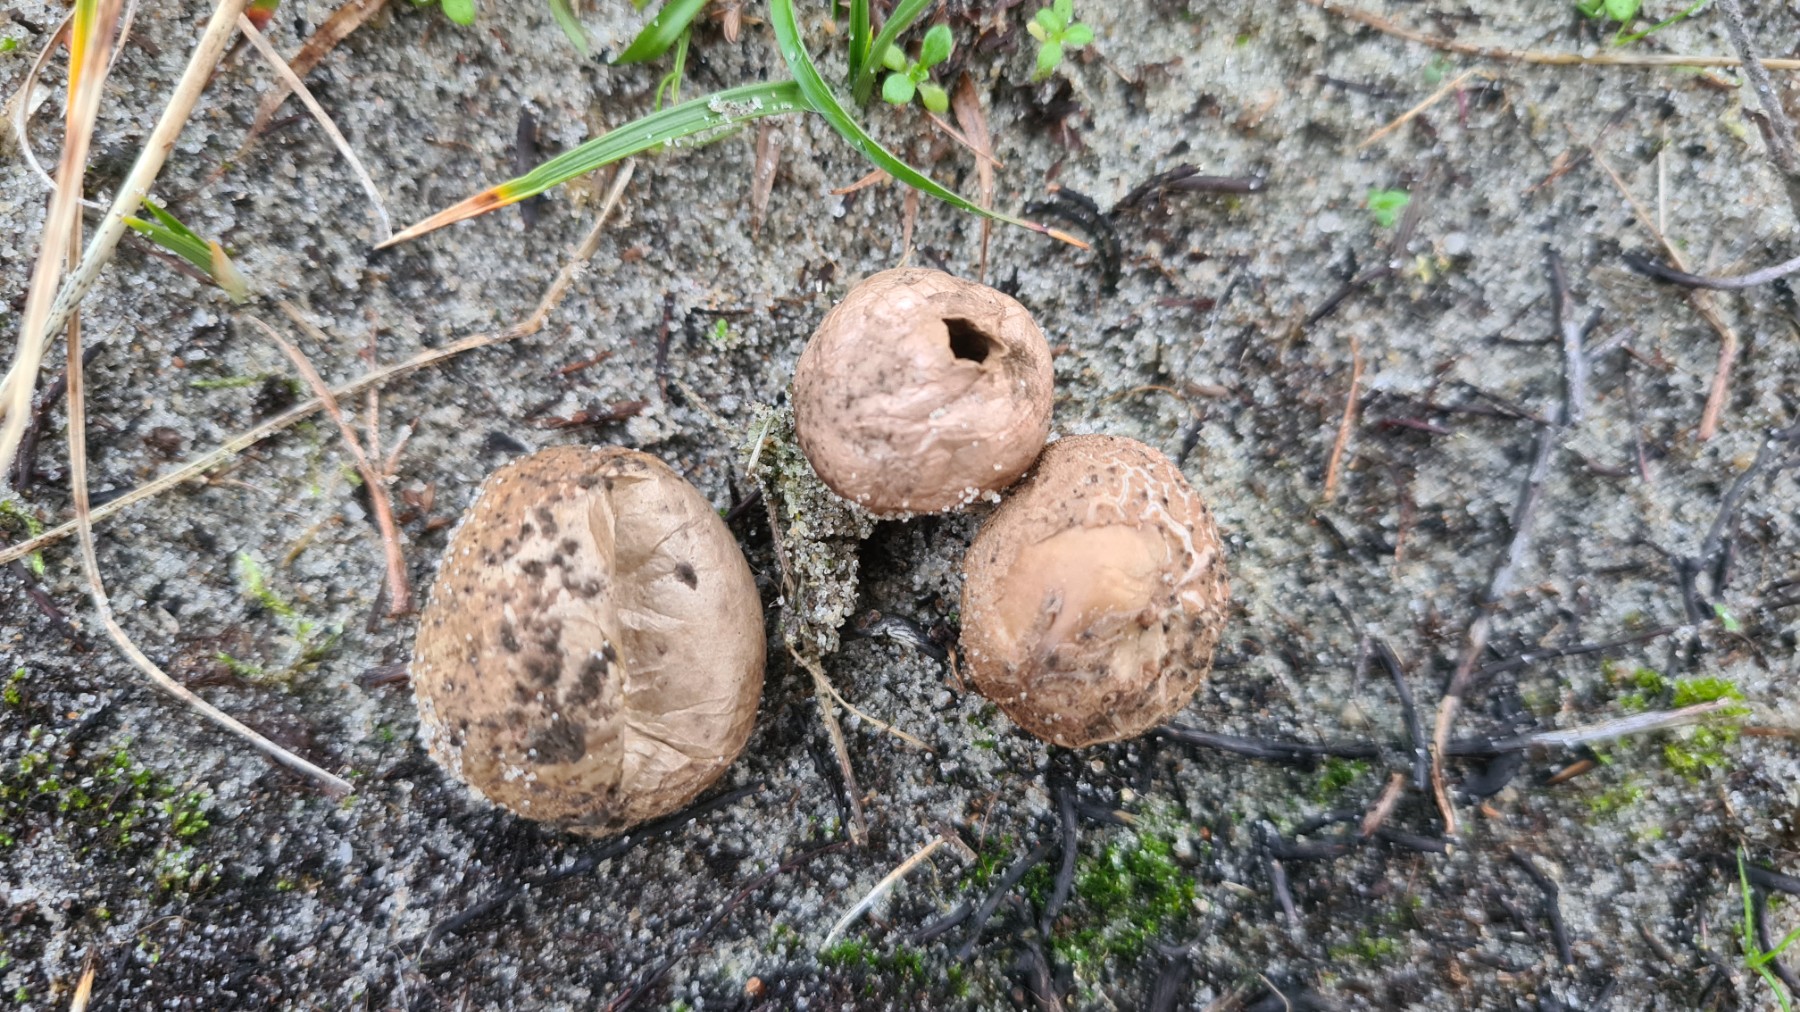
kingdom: Fungi
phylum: Basidiomycota
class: Agaricomycetes
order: Agaricales
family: Lycoperdaceae
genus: Lycoperdon
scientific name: Lycoperdon lividum
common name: mark-støvbold
